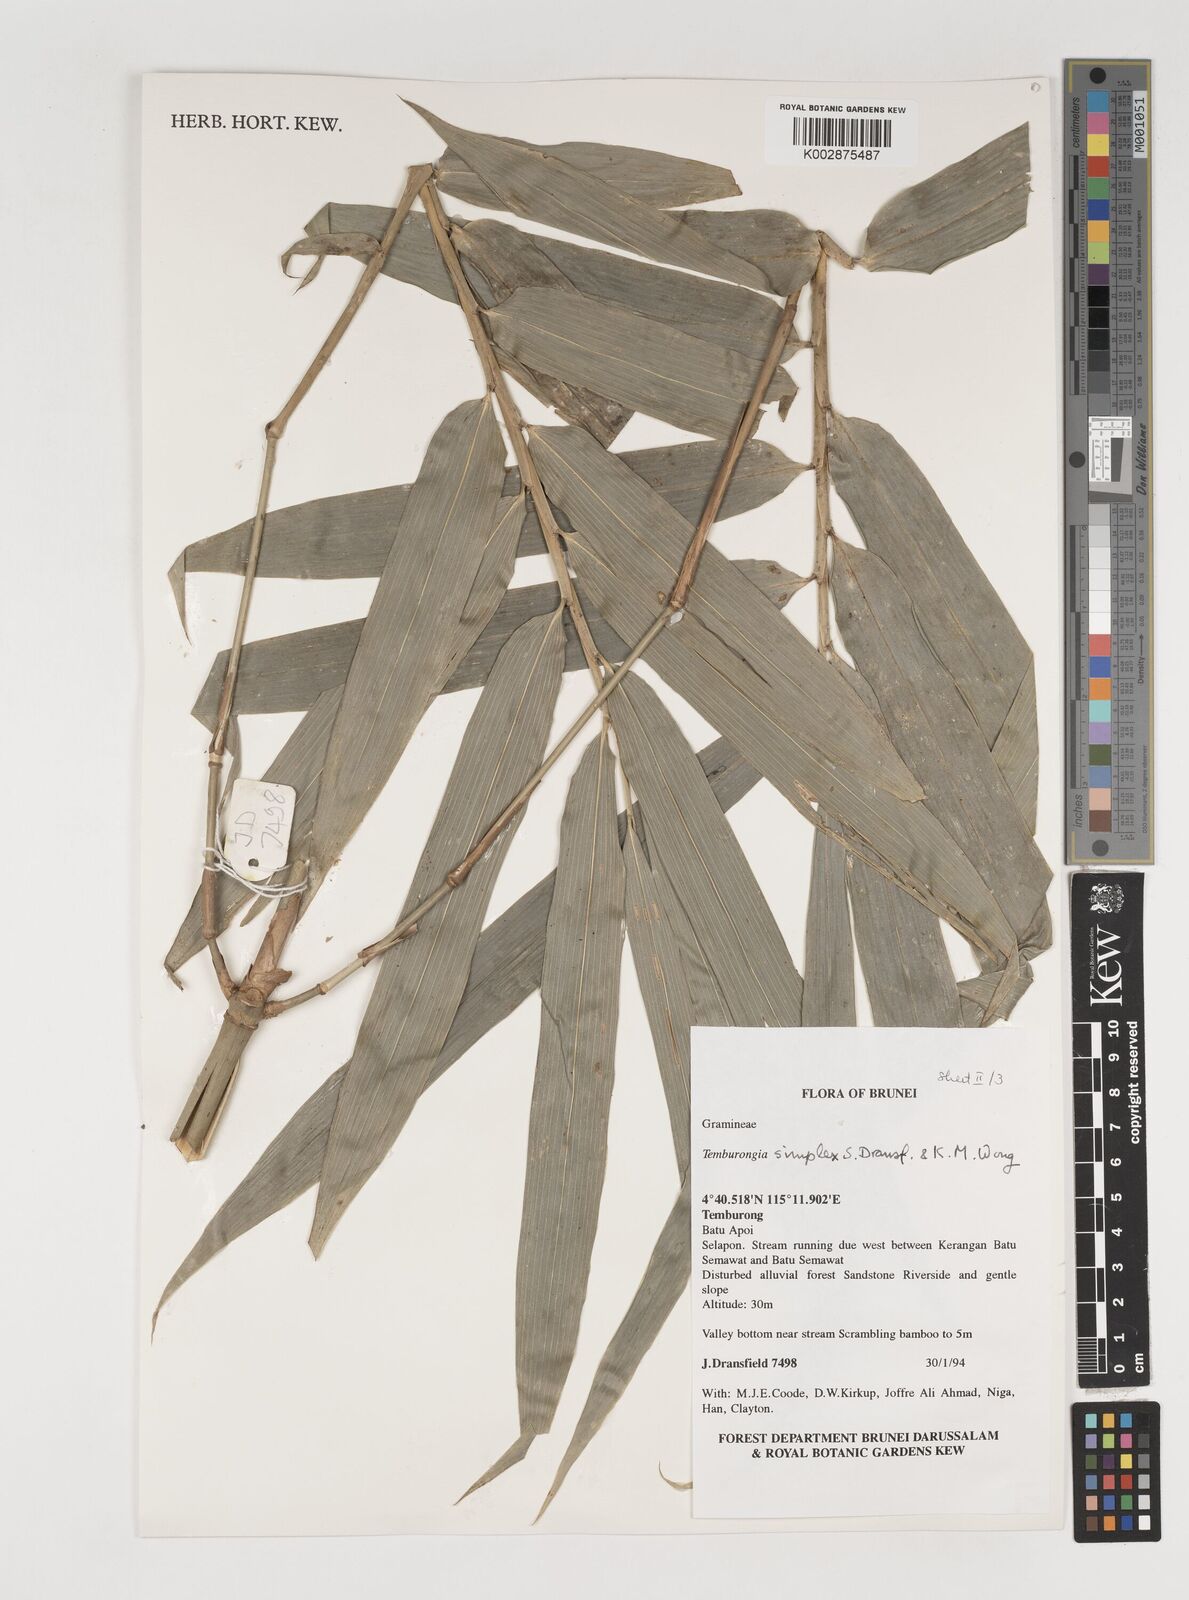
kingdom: Plantae
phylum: Tracheophyta
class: Liliopsida
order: Poales
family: Poaceae
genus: Temburongia
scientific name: Temburongia
